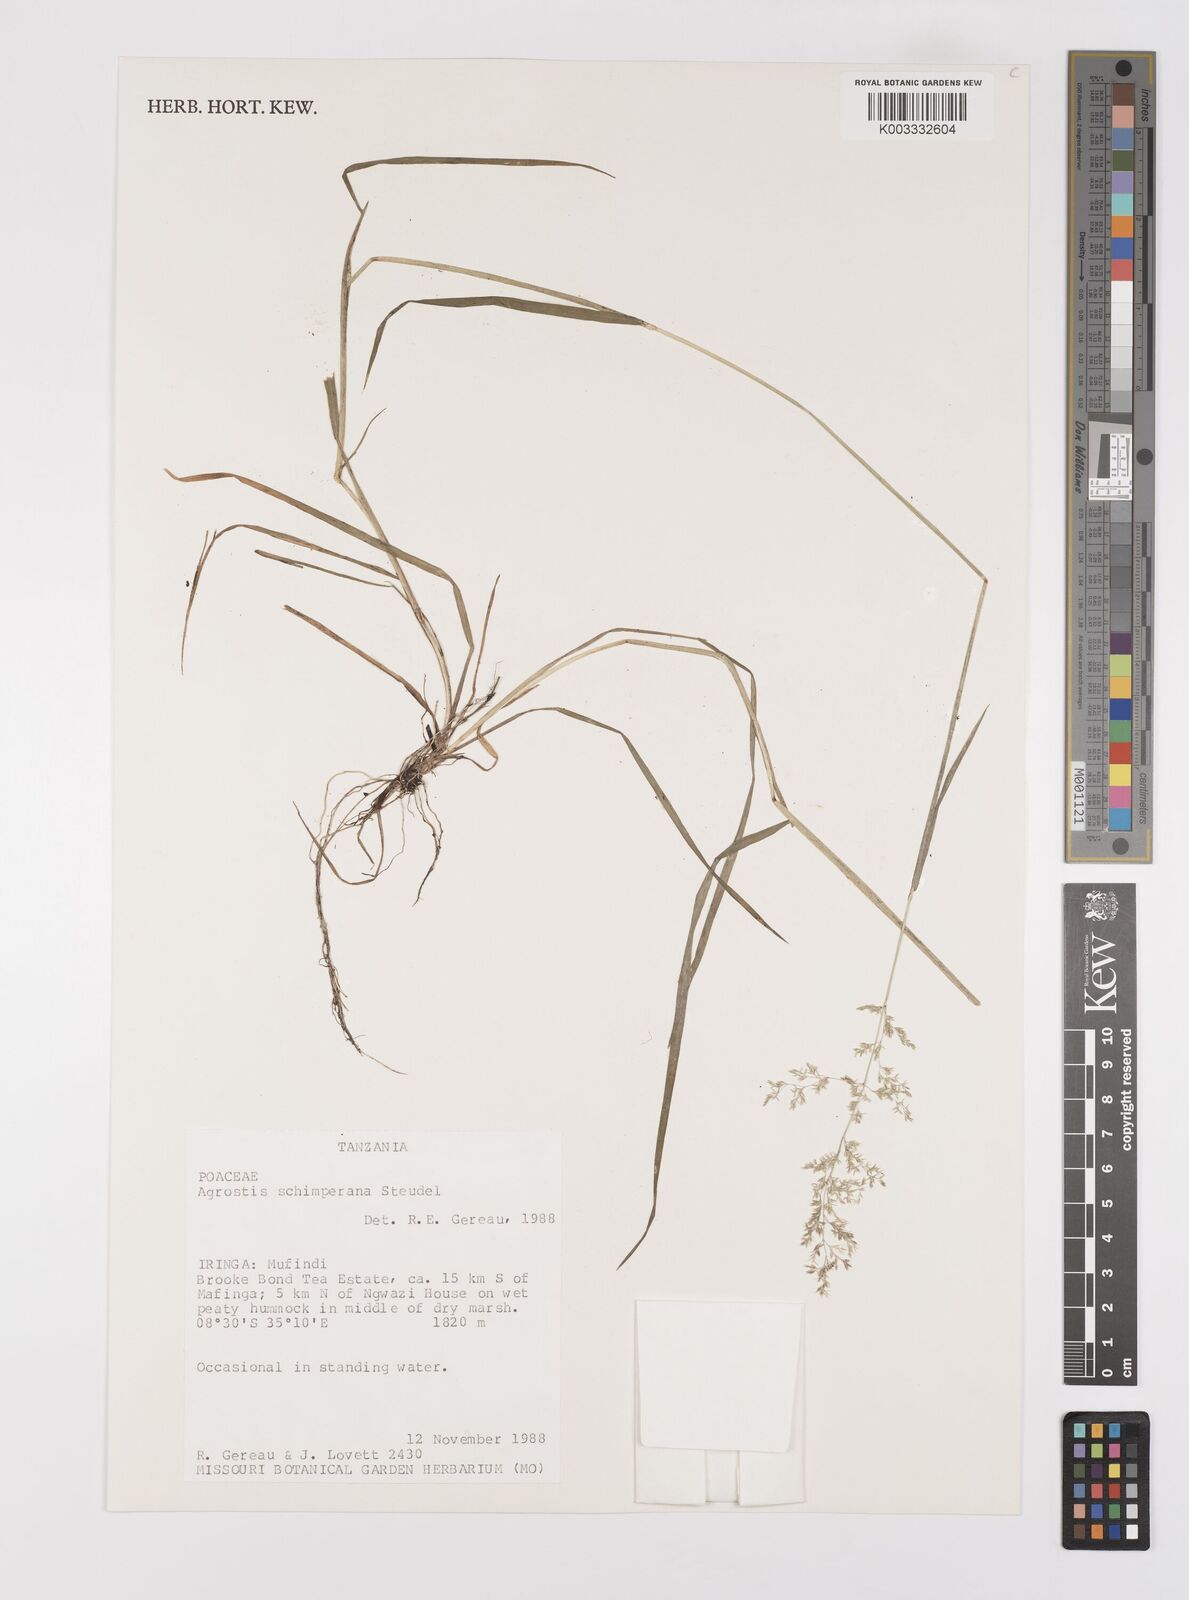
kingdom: Plantae
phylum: Tracheophyta
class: Liliopsida
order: Poales
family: Poaceae
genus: Polypogon
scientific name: Polypogon schimperianus
